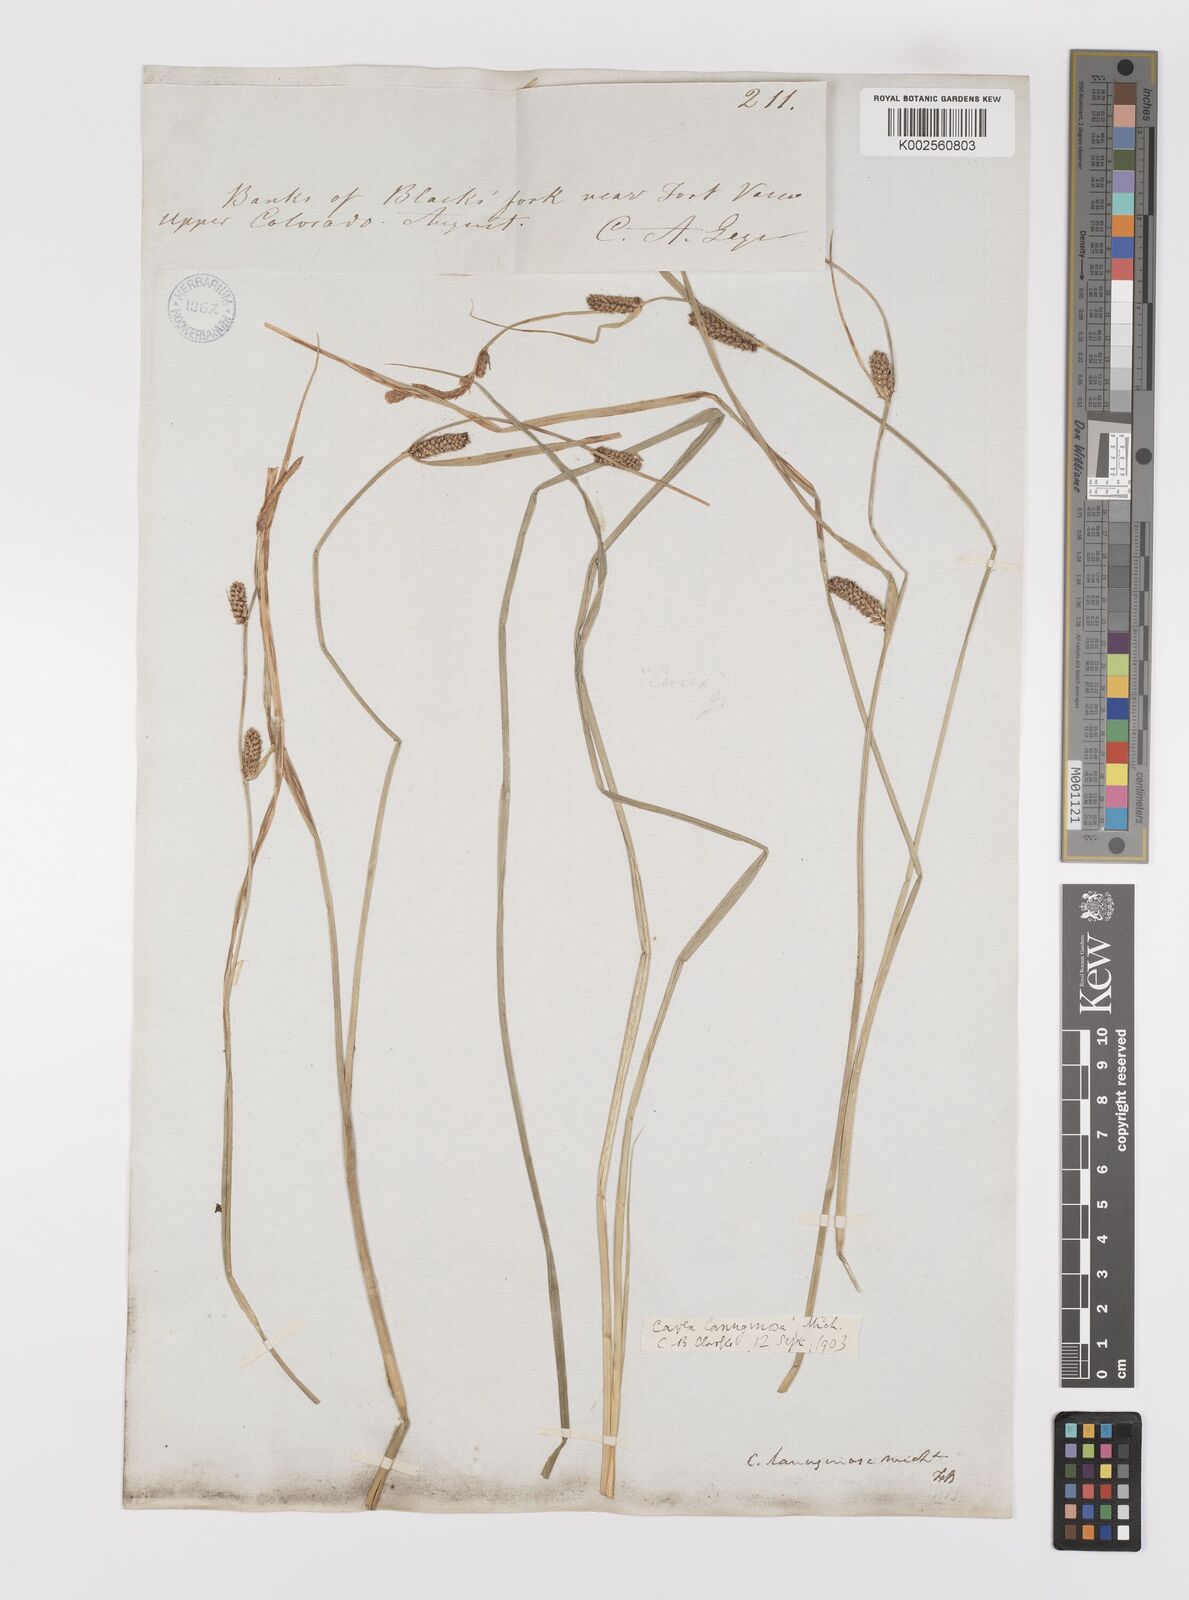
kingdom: Plantae
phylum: Tracheophyta
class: Liliopsida
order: Poales
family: Cyperaceae
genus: Carex
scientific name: Carex lasiocarpa
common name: Slender sedge
